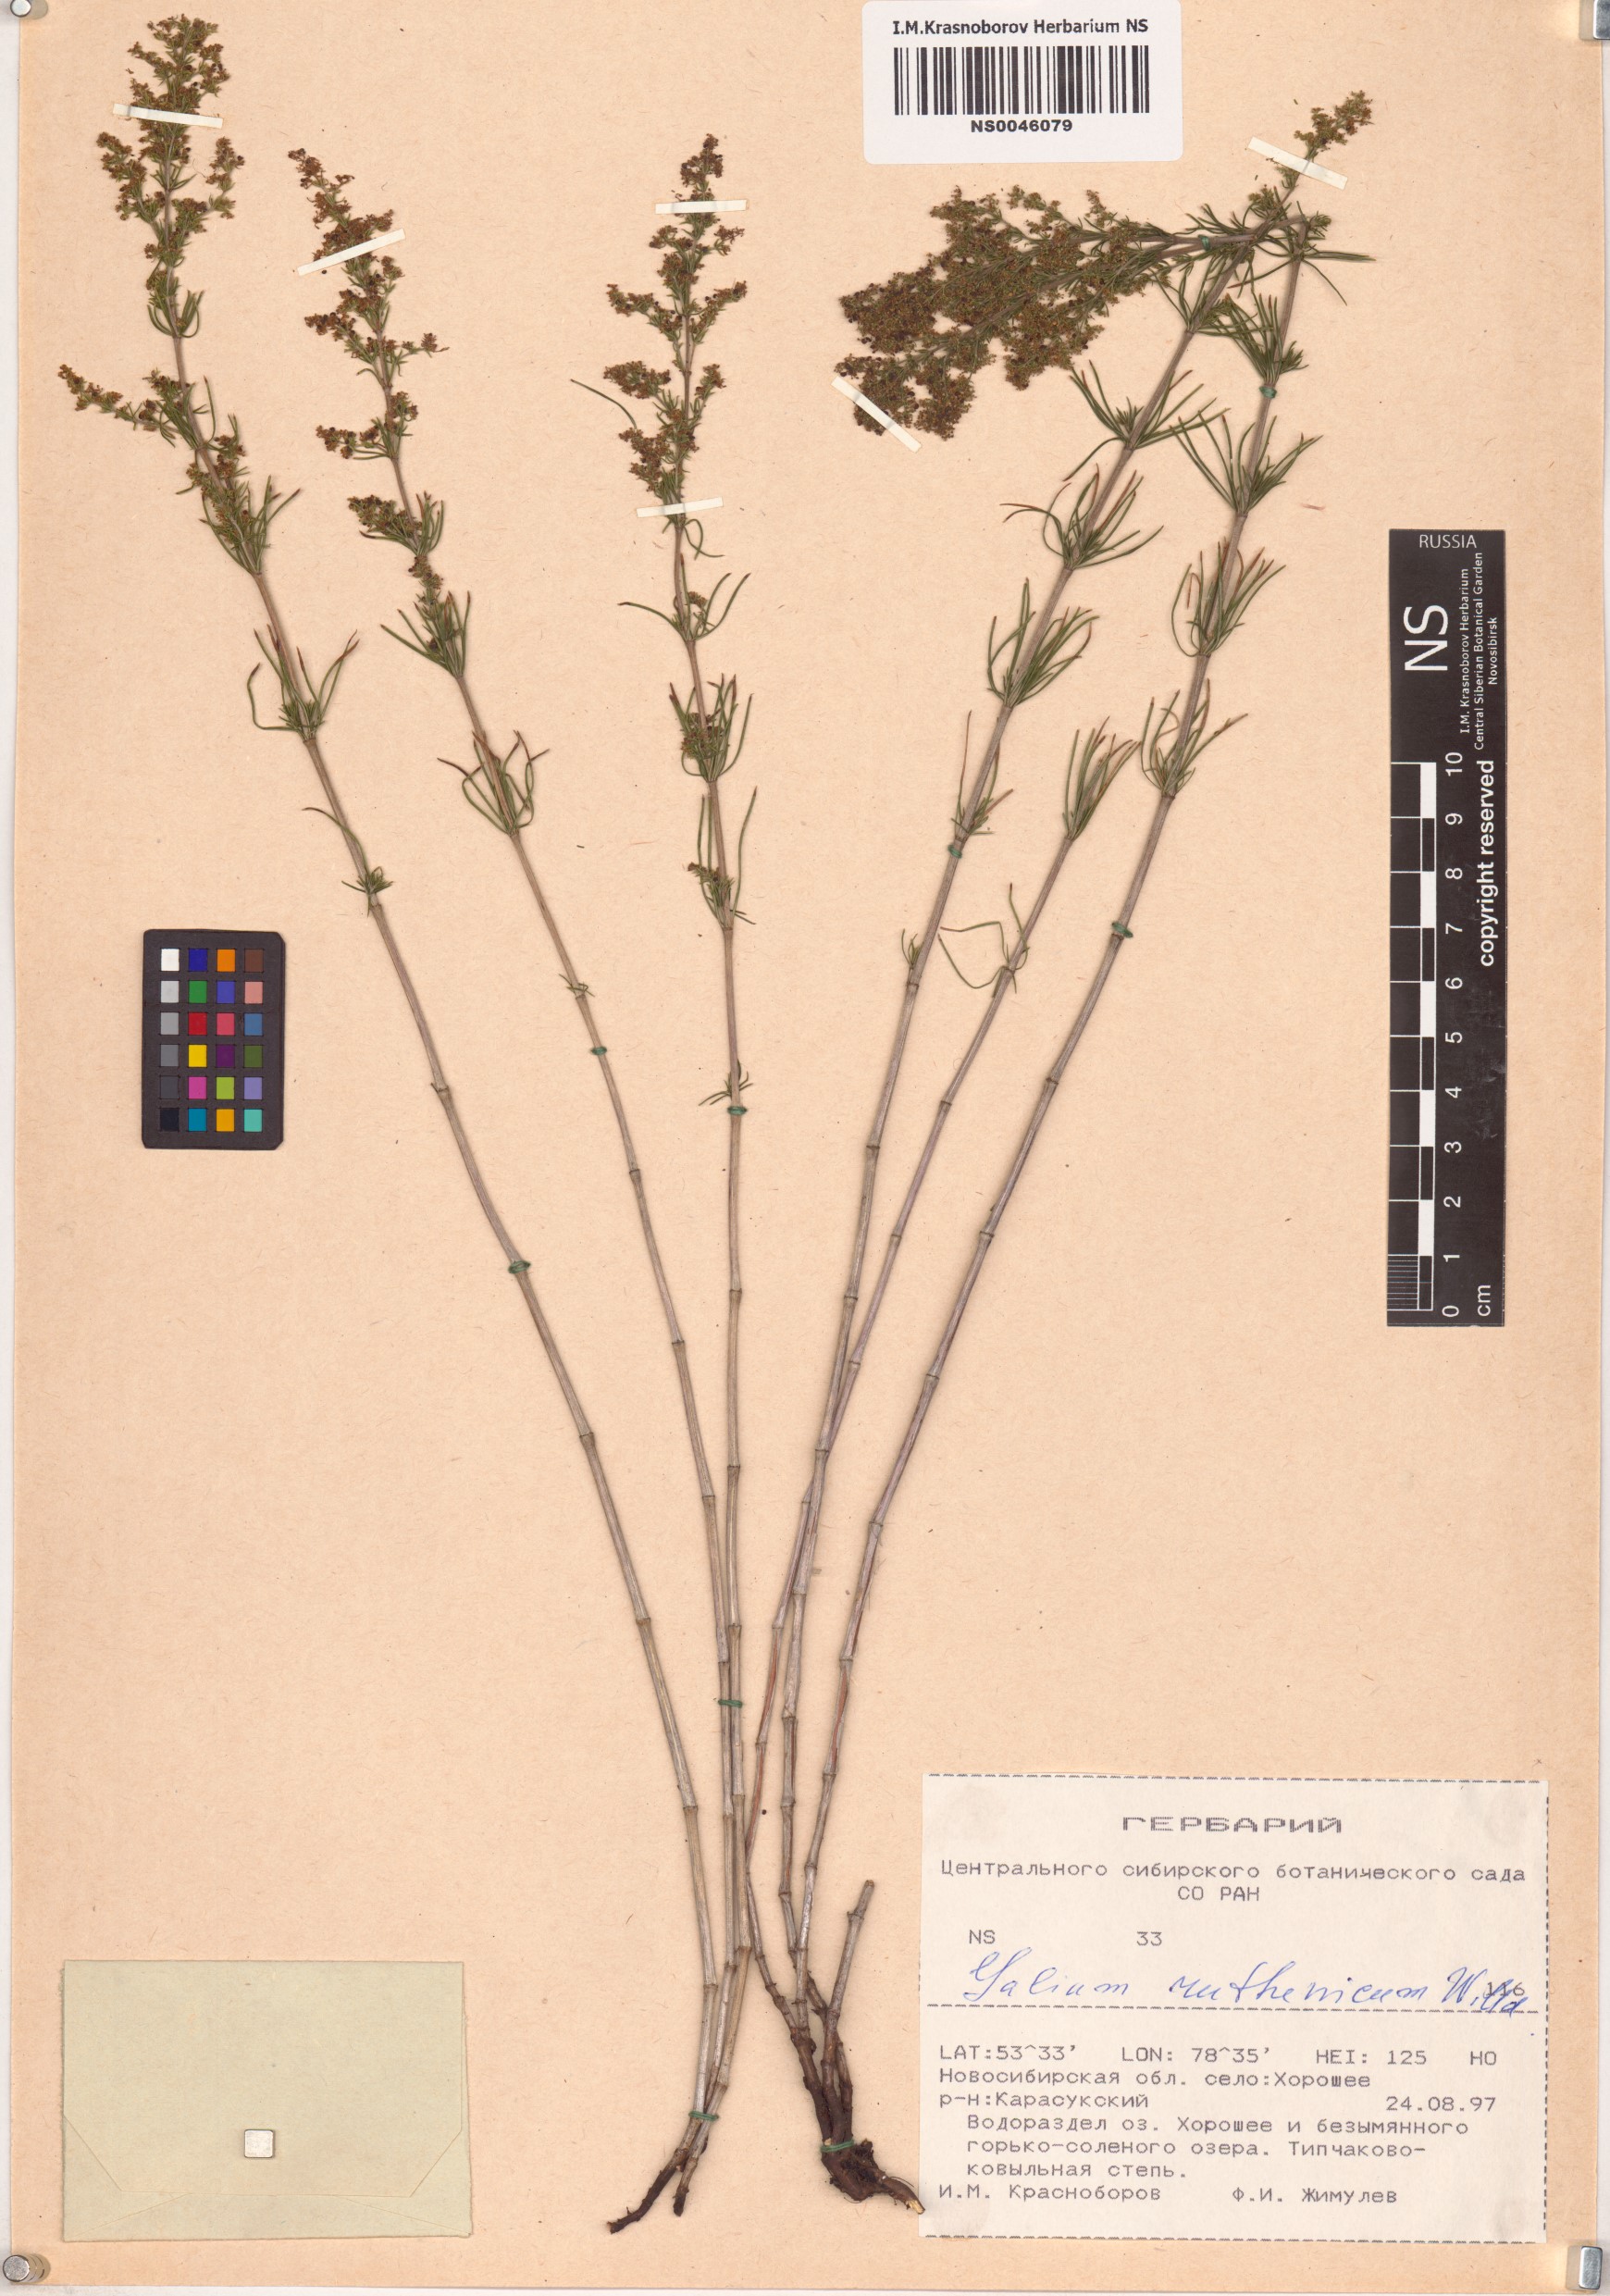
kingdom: Plantae
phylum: Tracheophyta
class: Magnoliopsida
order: Gentianales
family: Rubiaceae
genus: Galium
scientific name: Galium verum
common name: Lady's bedstraw
